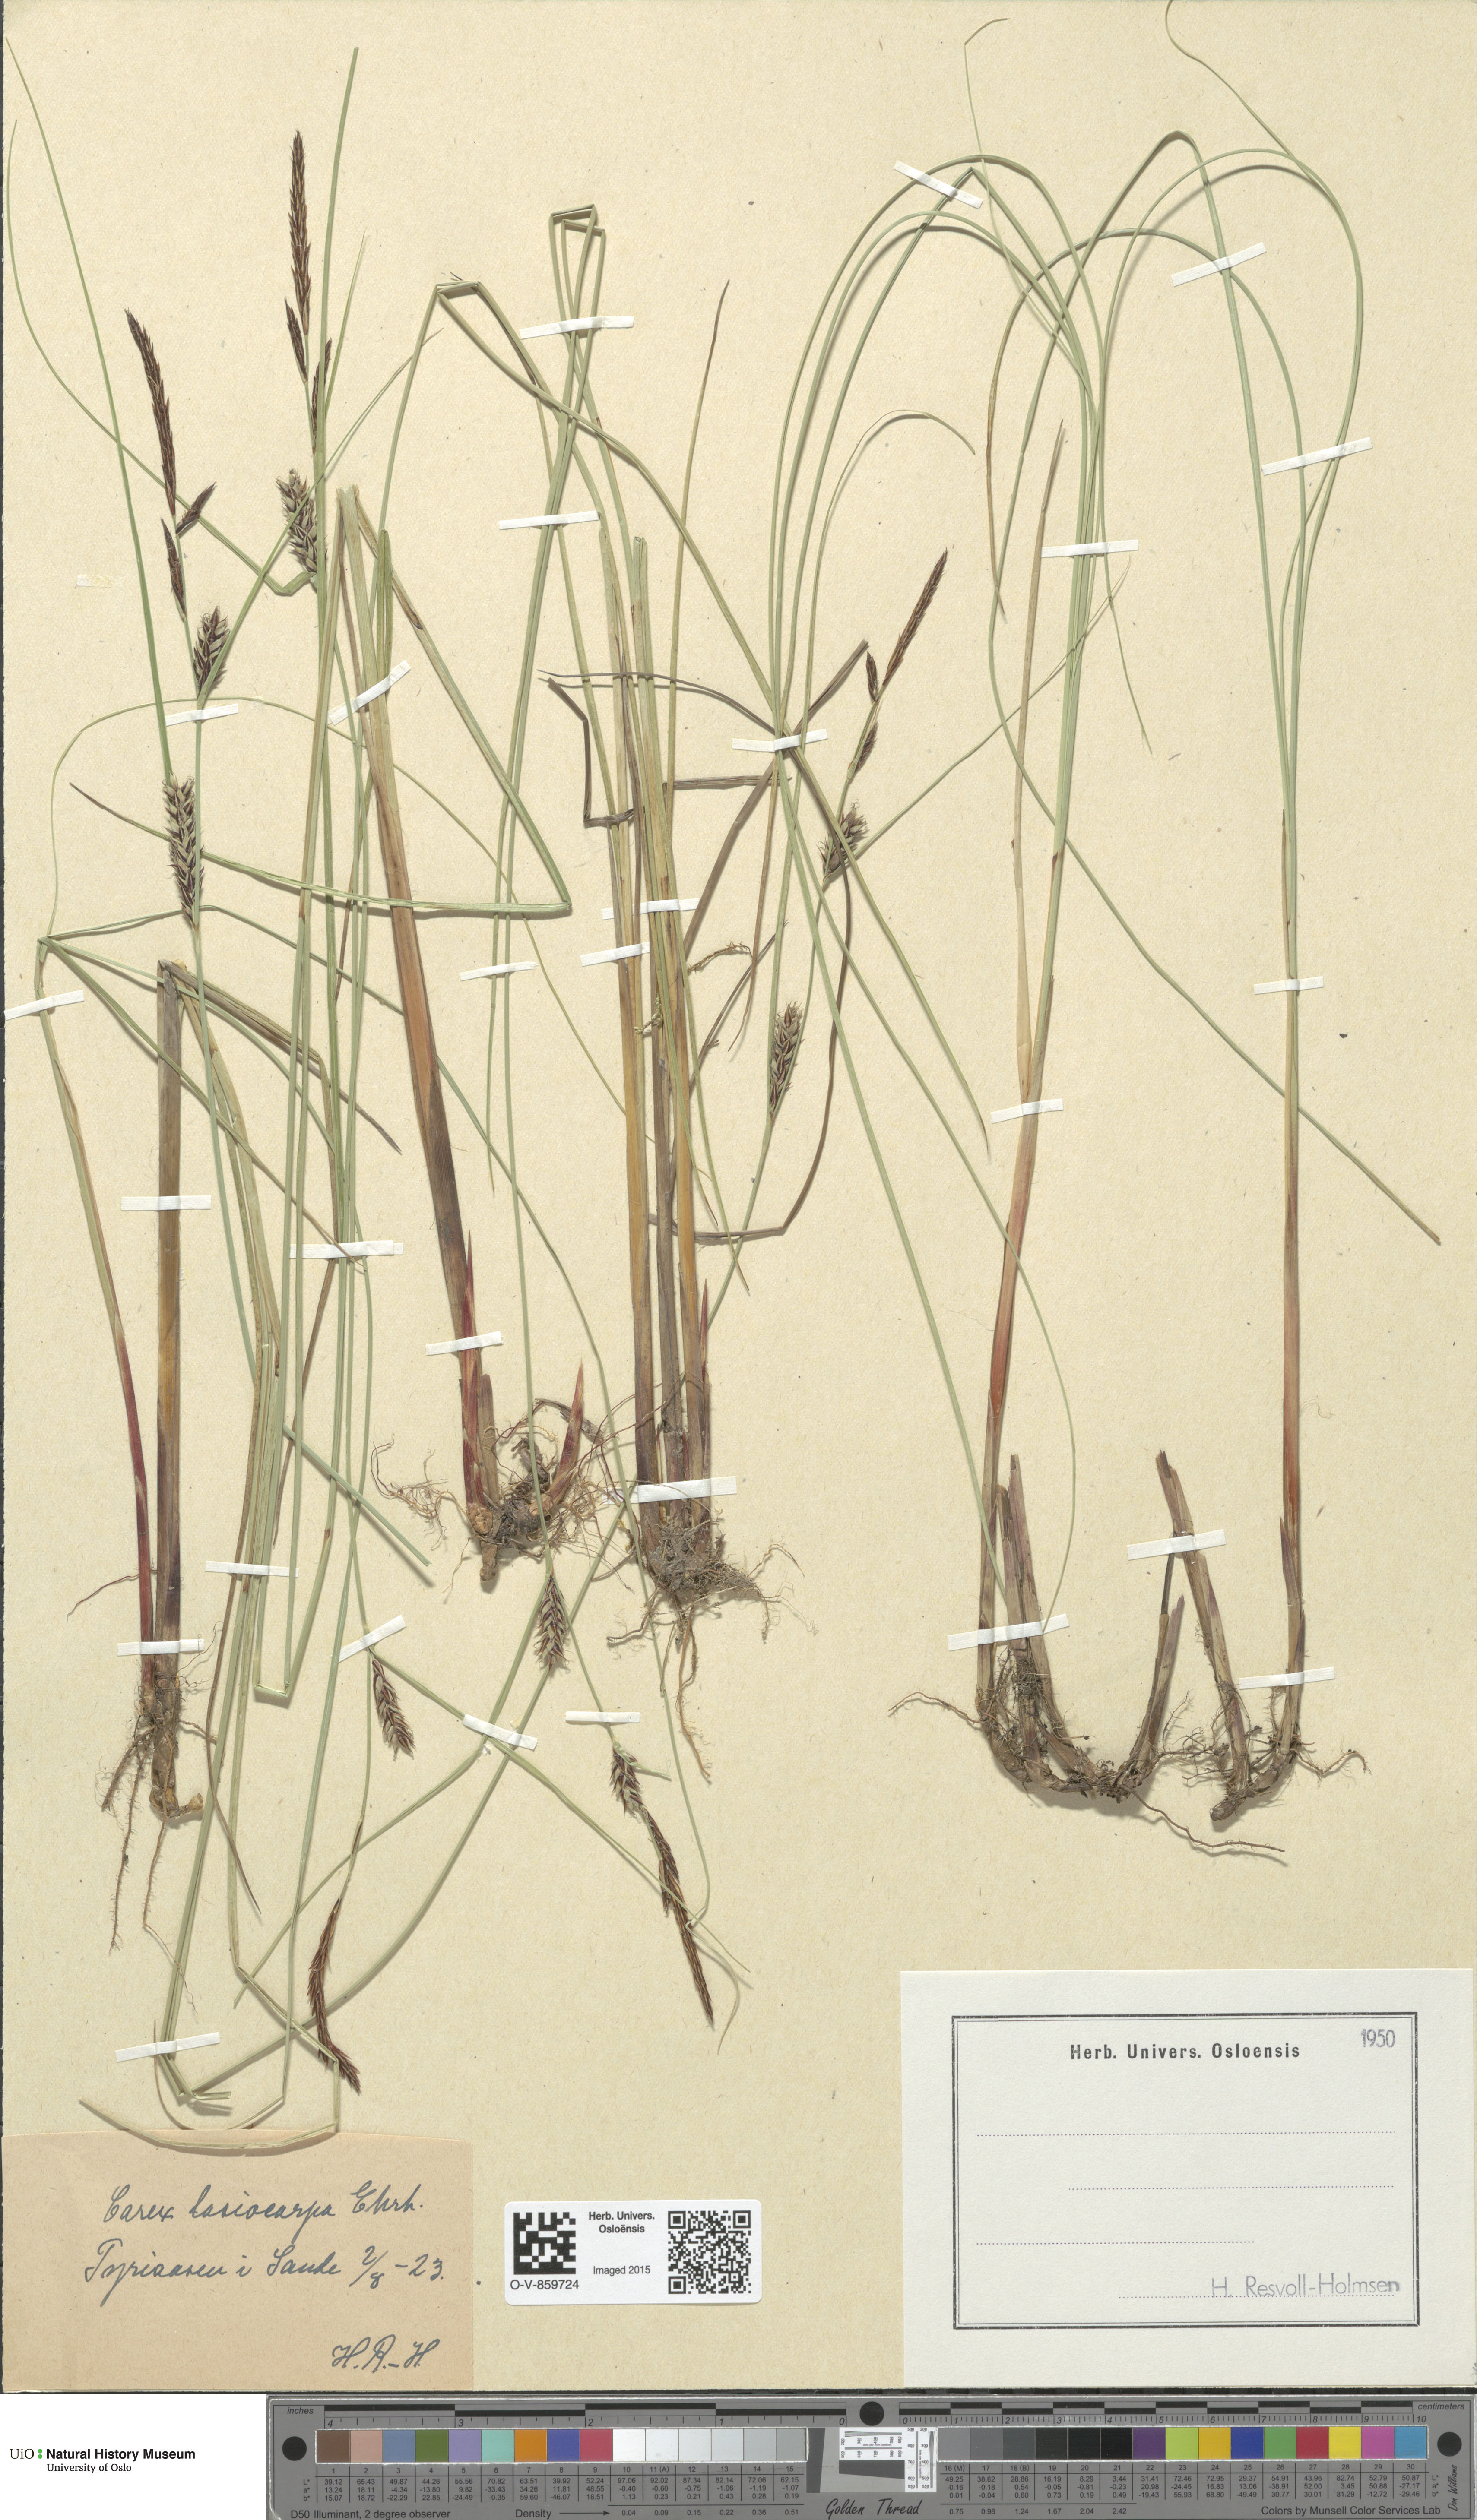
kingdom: Plantae
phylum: Tracheophyta
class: Liliopsida
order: Poales
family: Cyperaceae
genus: Carex
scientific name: Carex lasiocarpa
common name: Slender sedge
